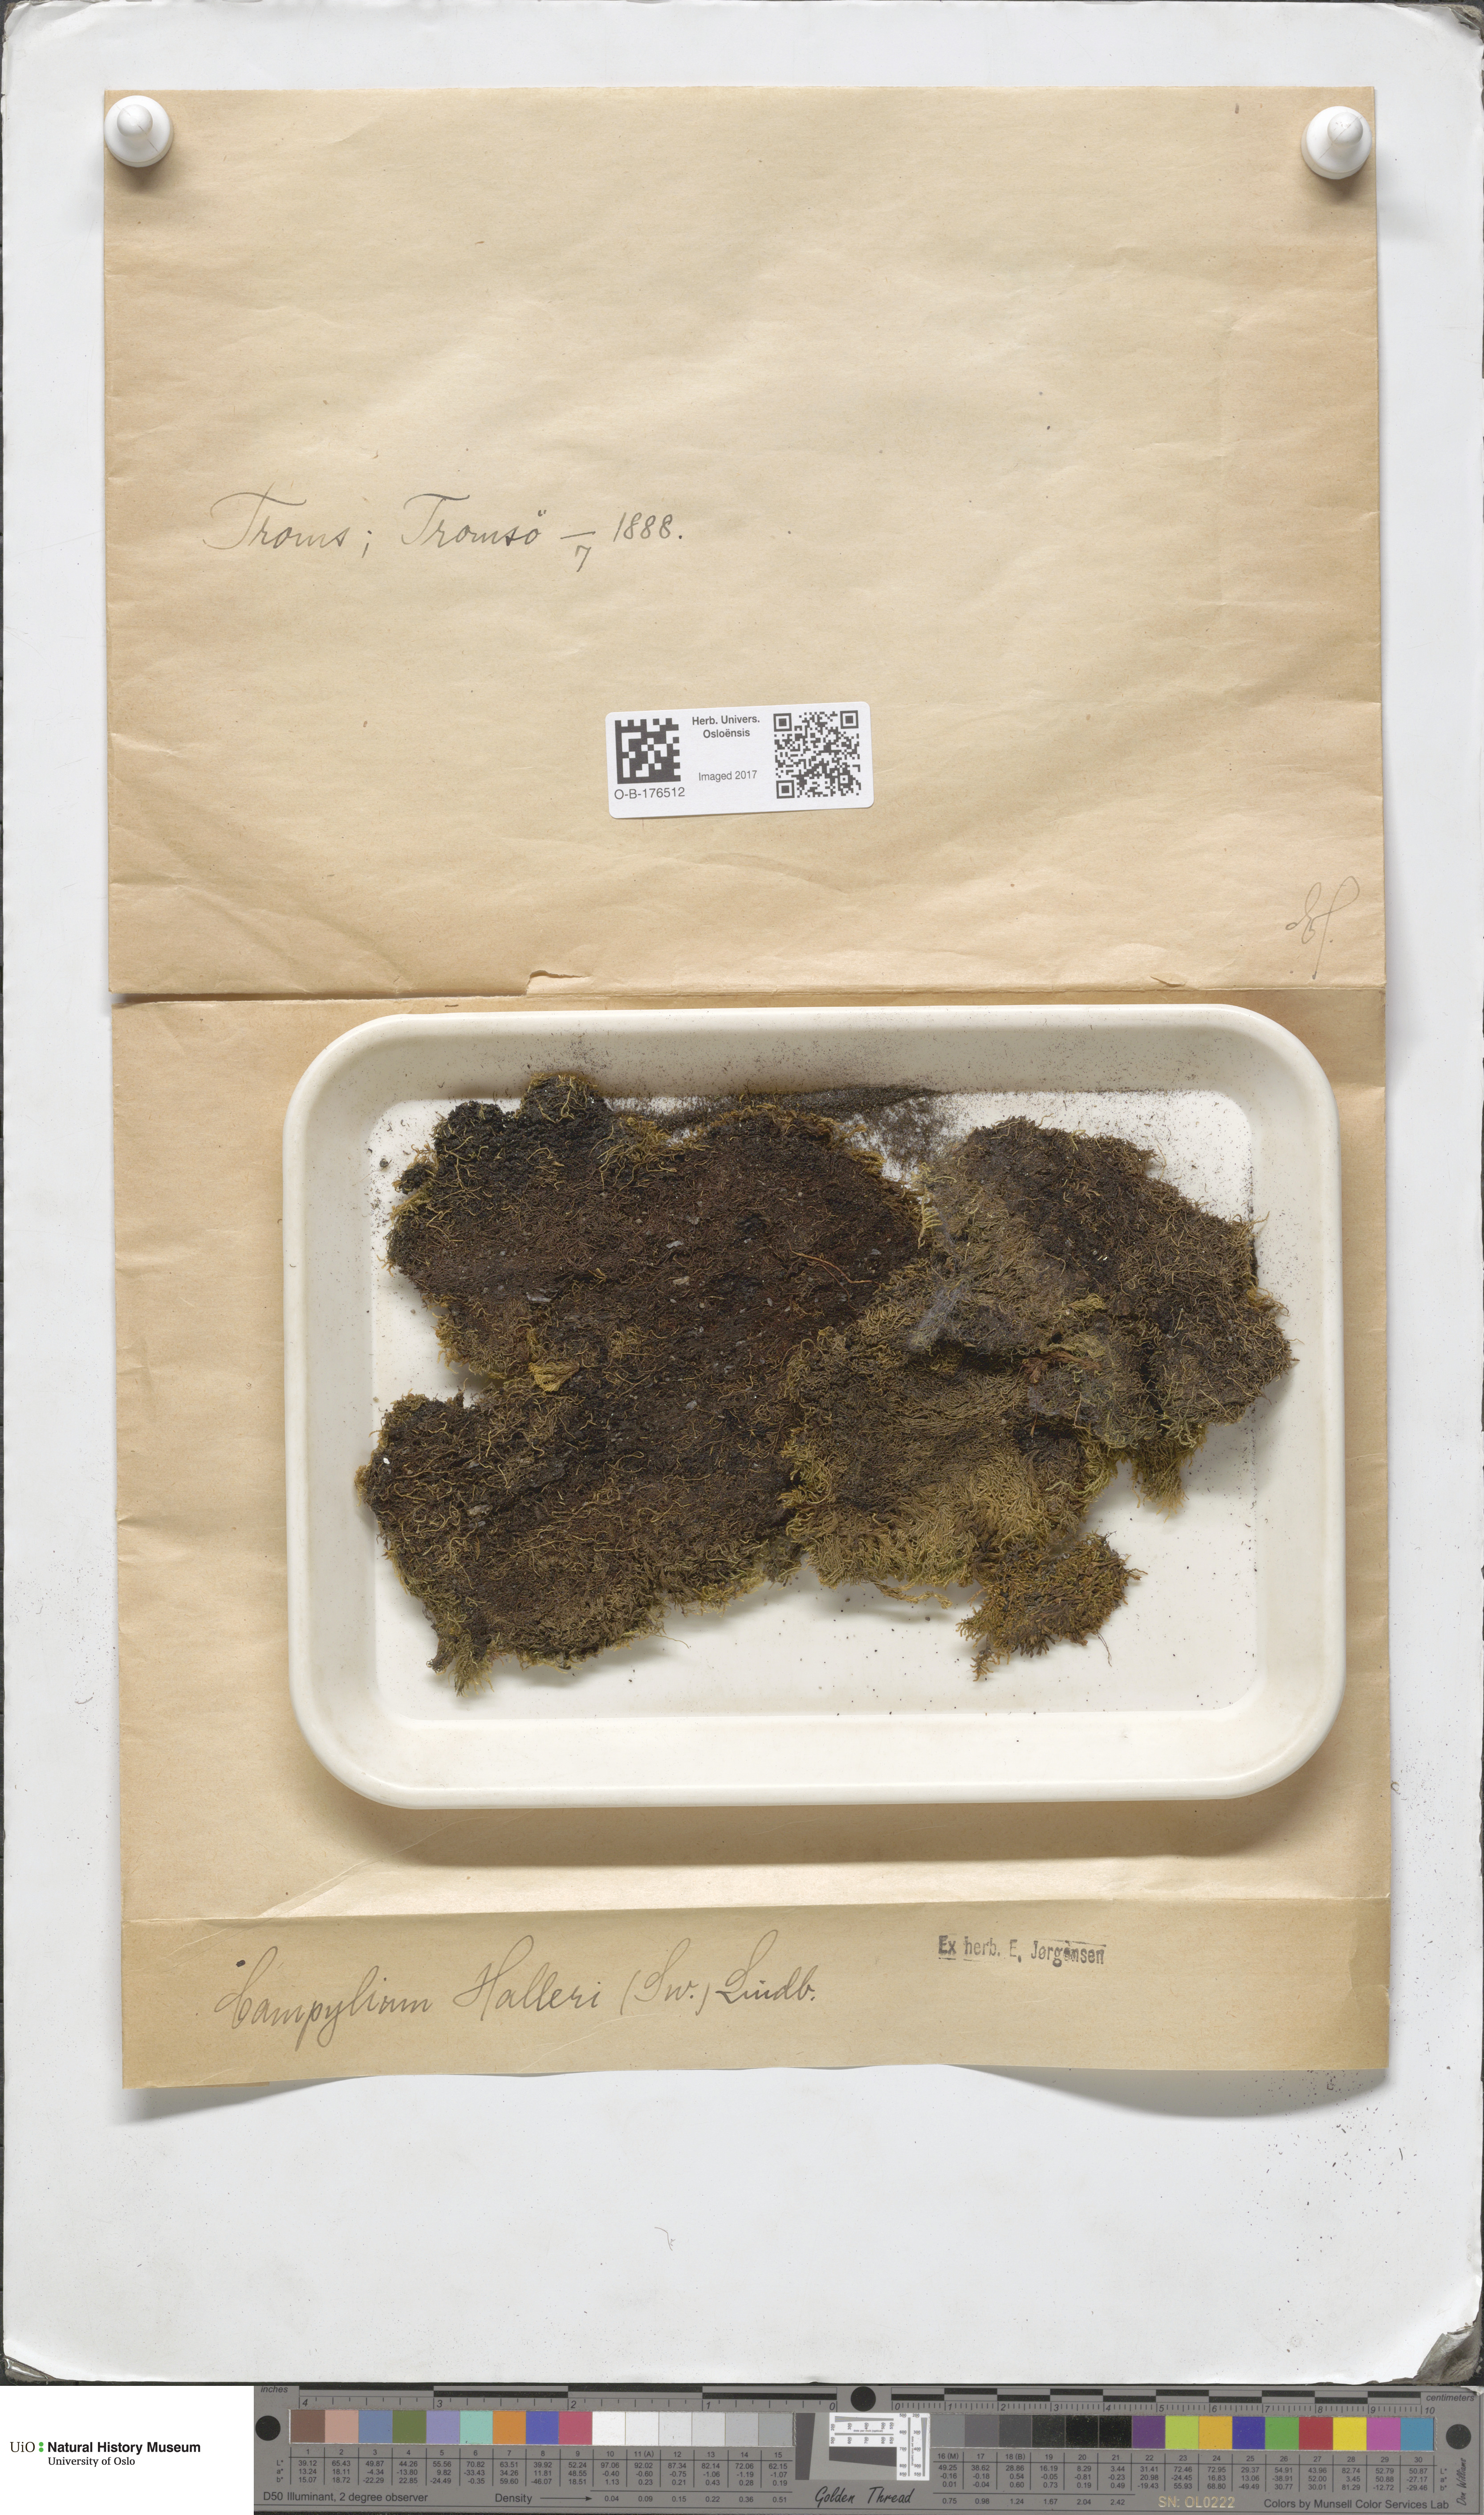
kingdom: Plantae
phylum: Bryophyta
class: Bryopsida
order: Hypnales
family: Amblystegiaceae
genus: Campylophyllum
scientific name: Campylophyllum halleri
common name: Haller's fine wet moss
